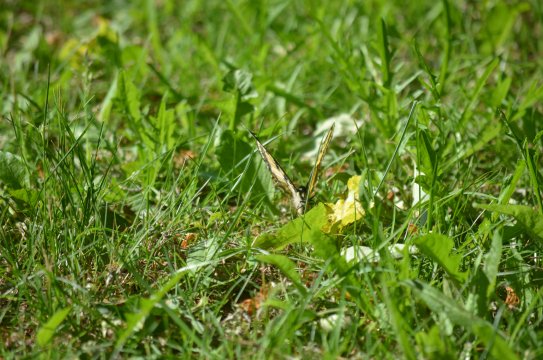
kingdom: Animalia
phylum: Arthropoda
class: Insecta
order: Lepidoptera
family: Papilionidae
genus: Pterourus
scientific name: Pterourus glaucus
